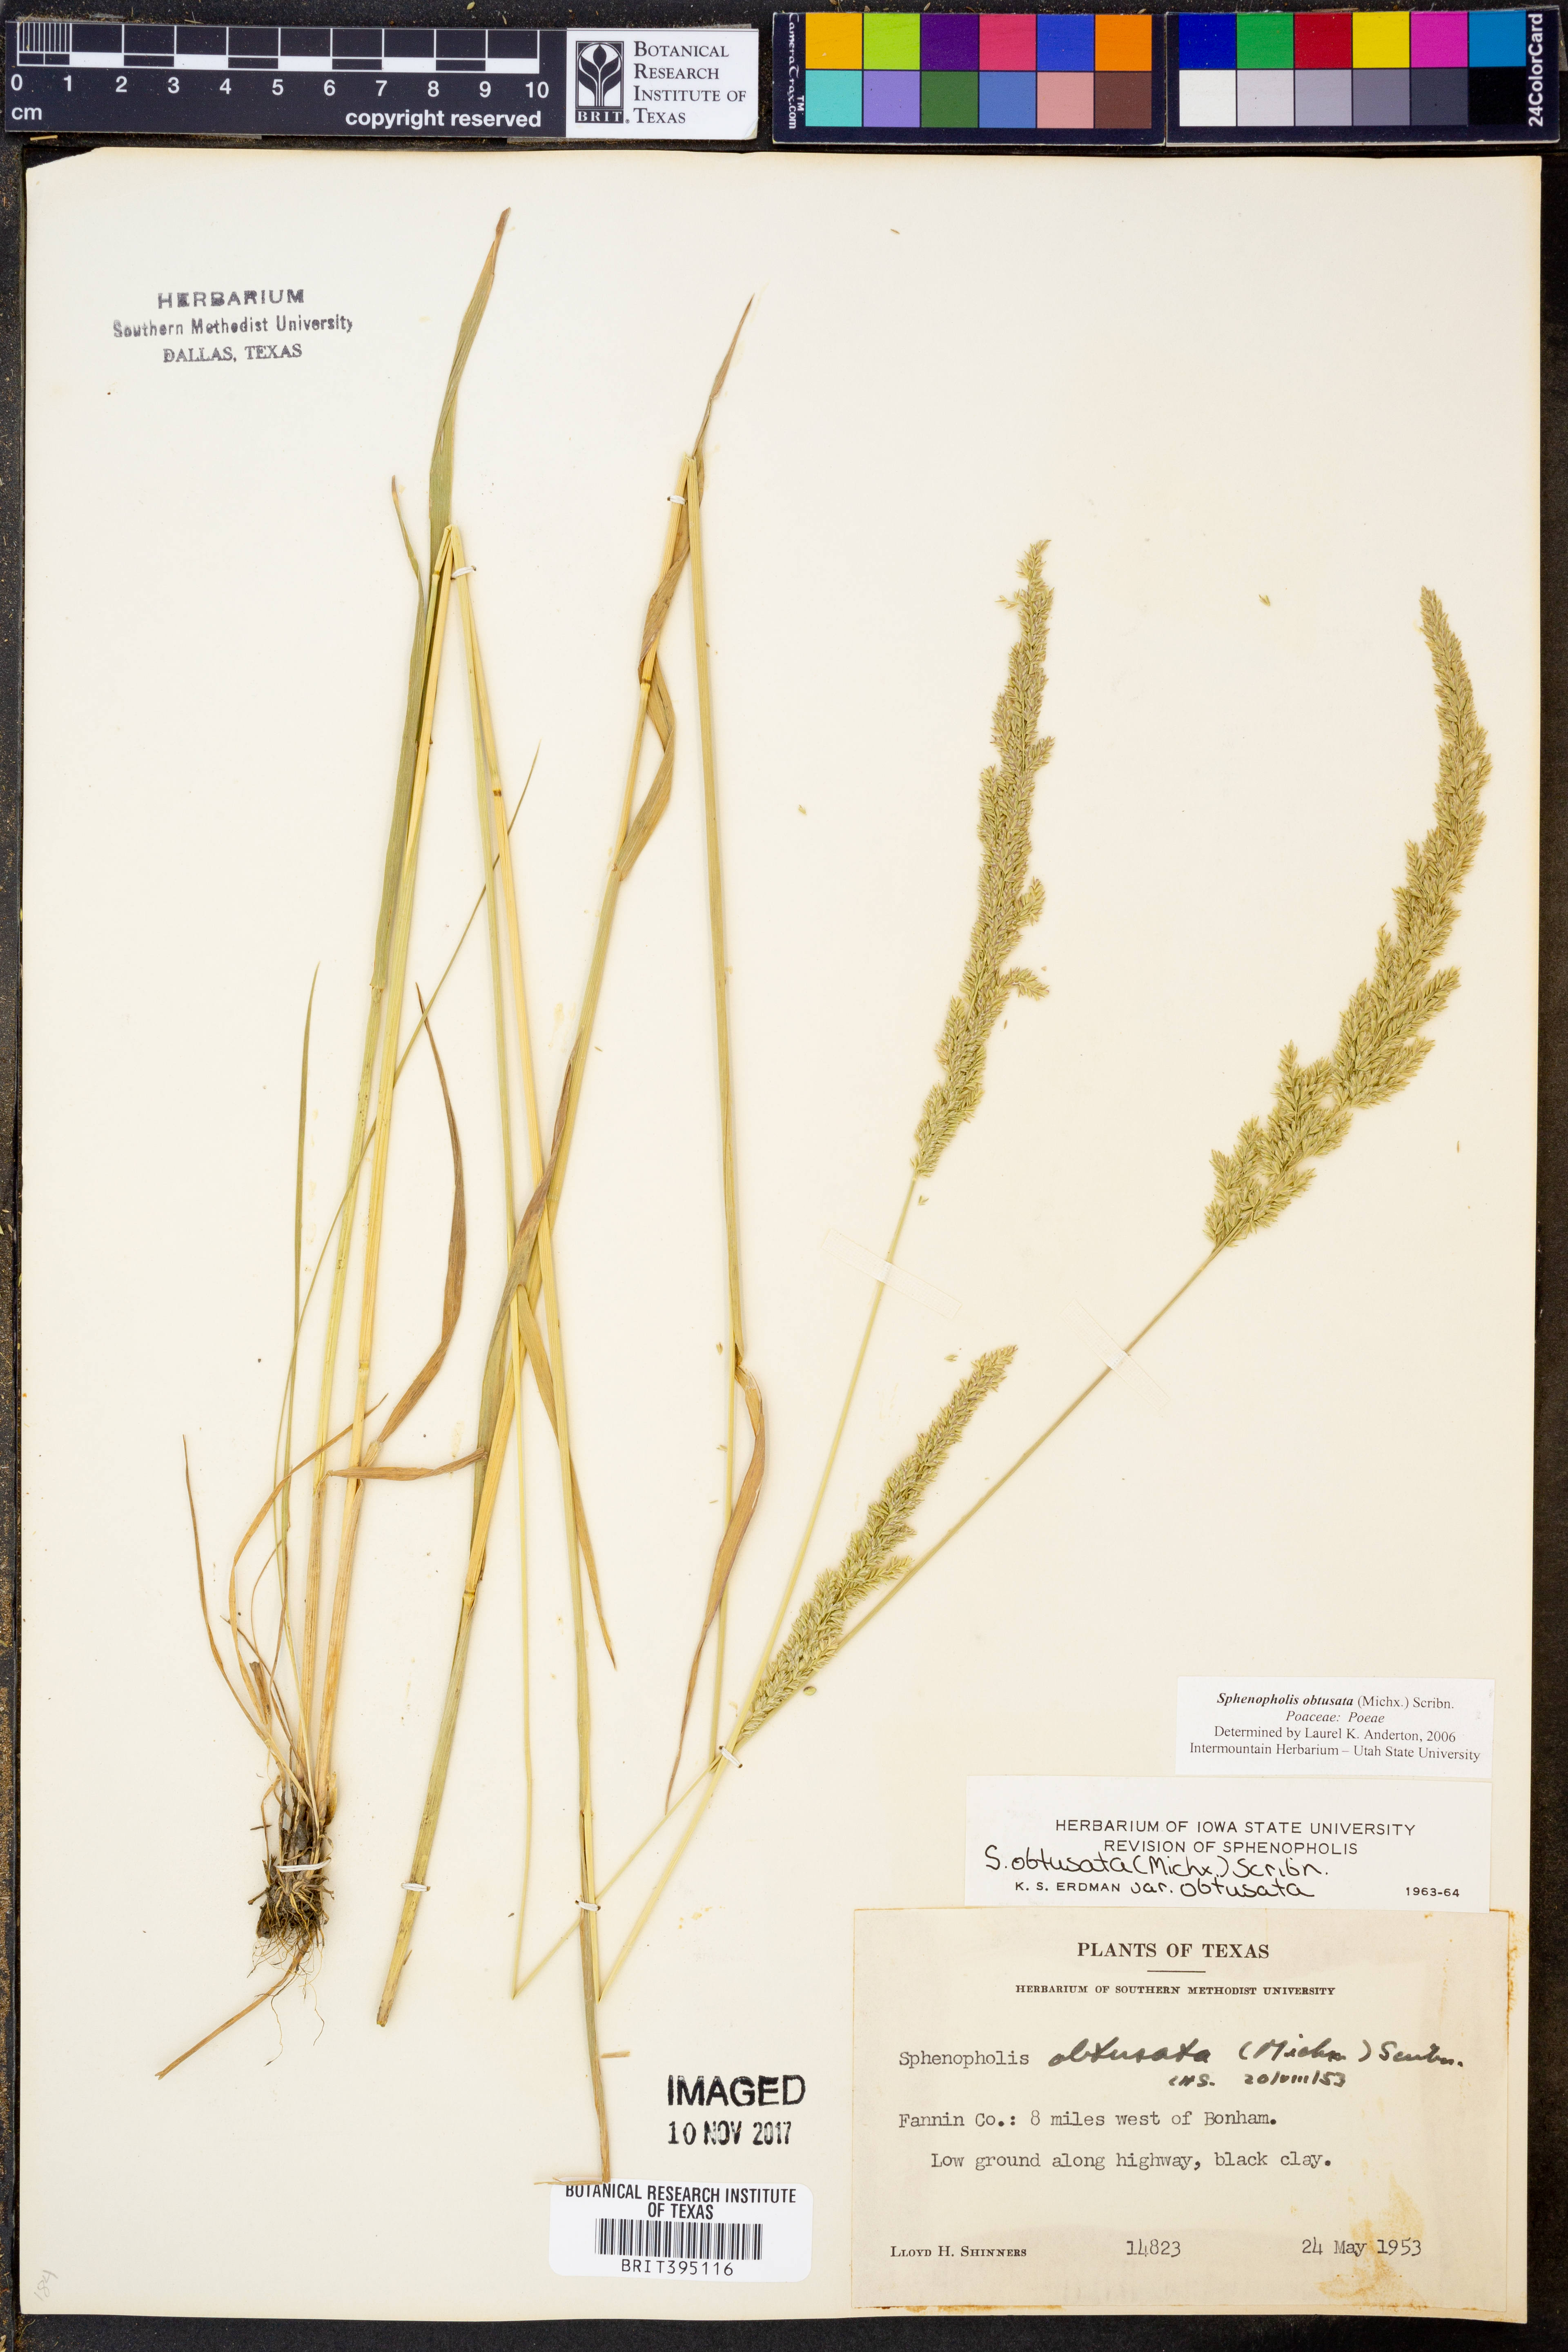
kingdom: Plantae
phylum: Tracheophyta
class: Liliopsida
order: Poales
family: Poaceae
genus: Sphenopholis
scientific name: Sphenopholis obtusata
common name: Prairie grass
